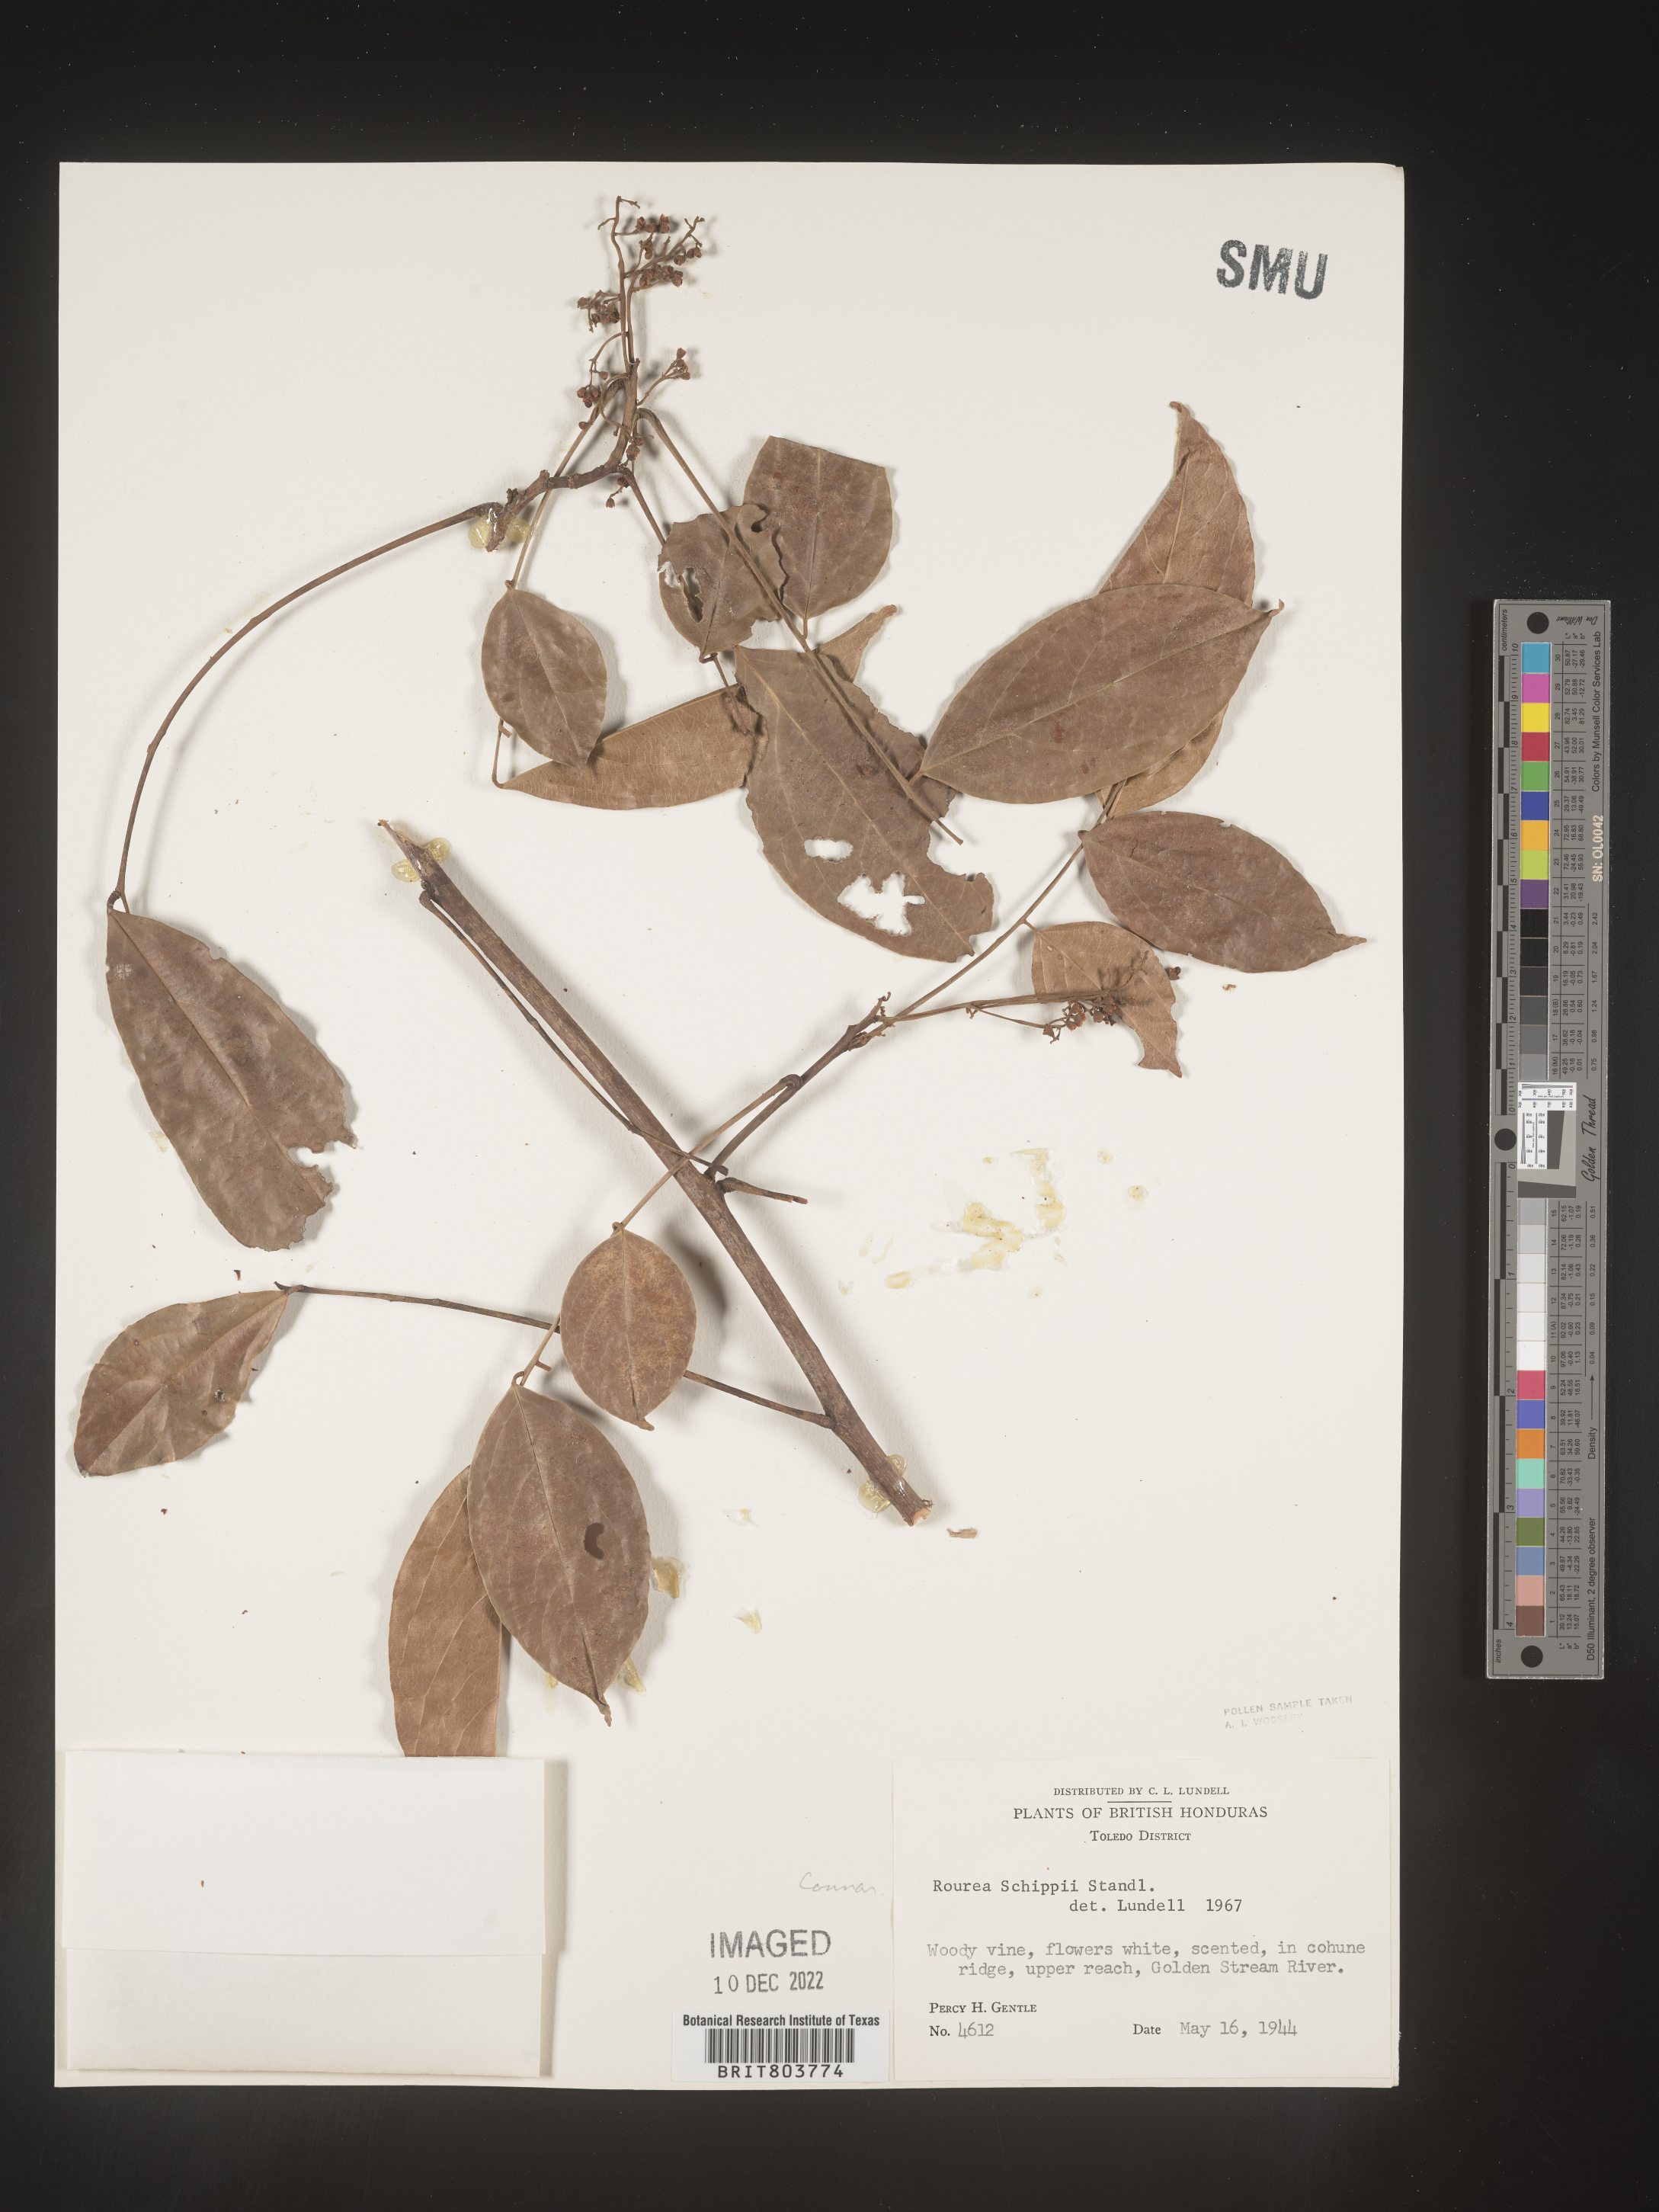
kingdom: Plantae
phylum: Tracheophyta
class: Magnoliopsida
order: Oxalidales
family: Connaraceae
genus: Rourea
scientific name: Rourea
